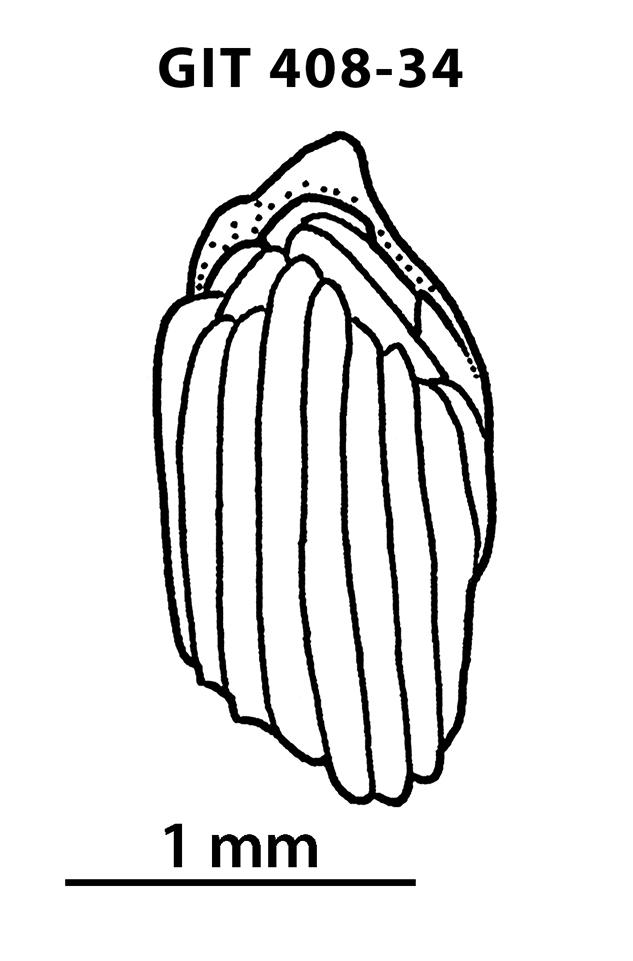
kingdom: Animalia
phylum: Chordata
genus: Archegonaspis
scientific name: Archegonaspis
